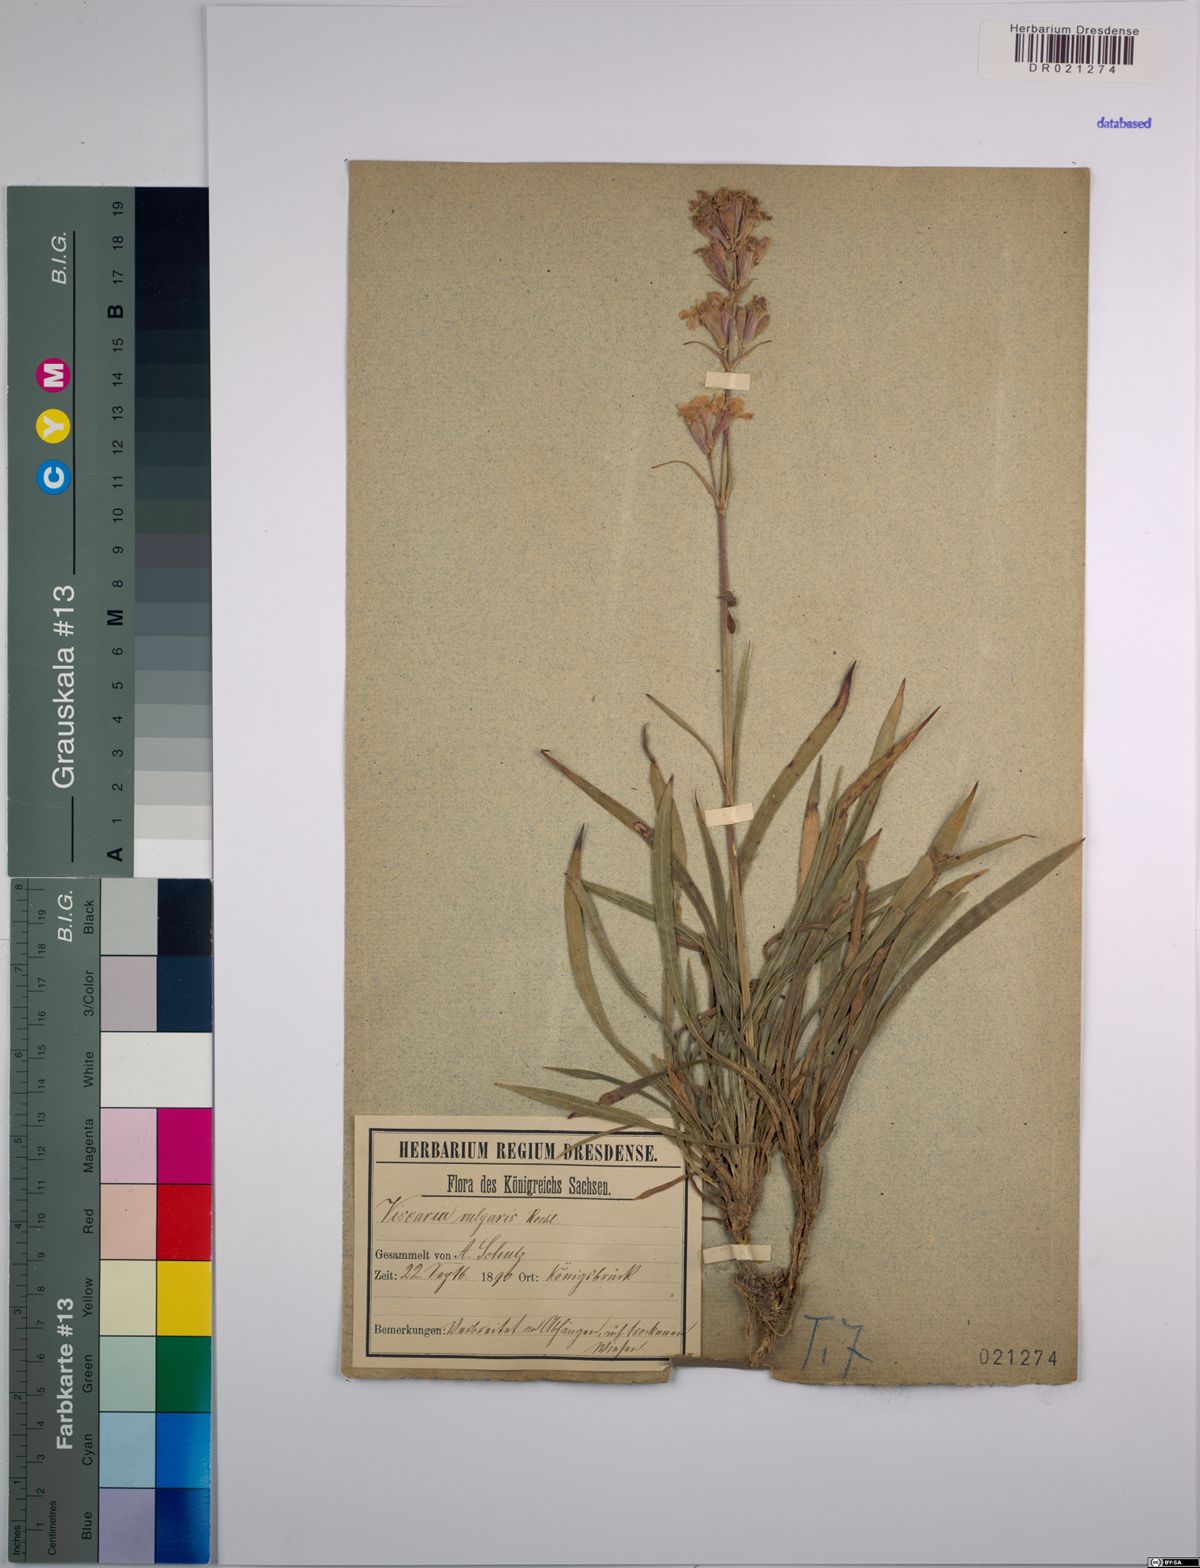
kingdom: Plantae
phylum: Tracheophyta
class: Magnoliopsida
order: Caryophyllales
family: Caryophyllaceae
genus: Viscaria
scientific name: Viscaria vulgaris
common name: Clammy campion
